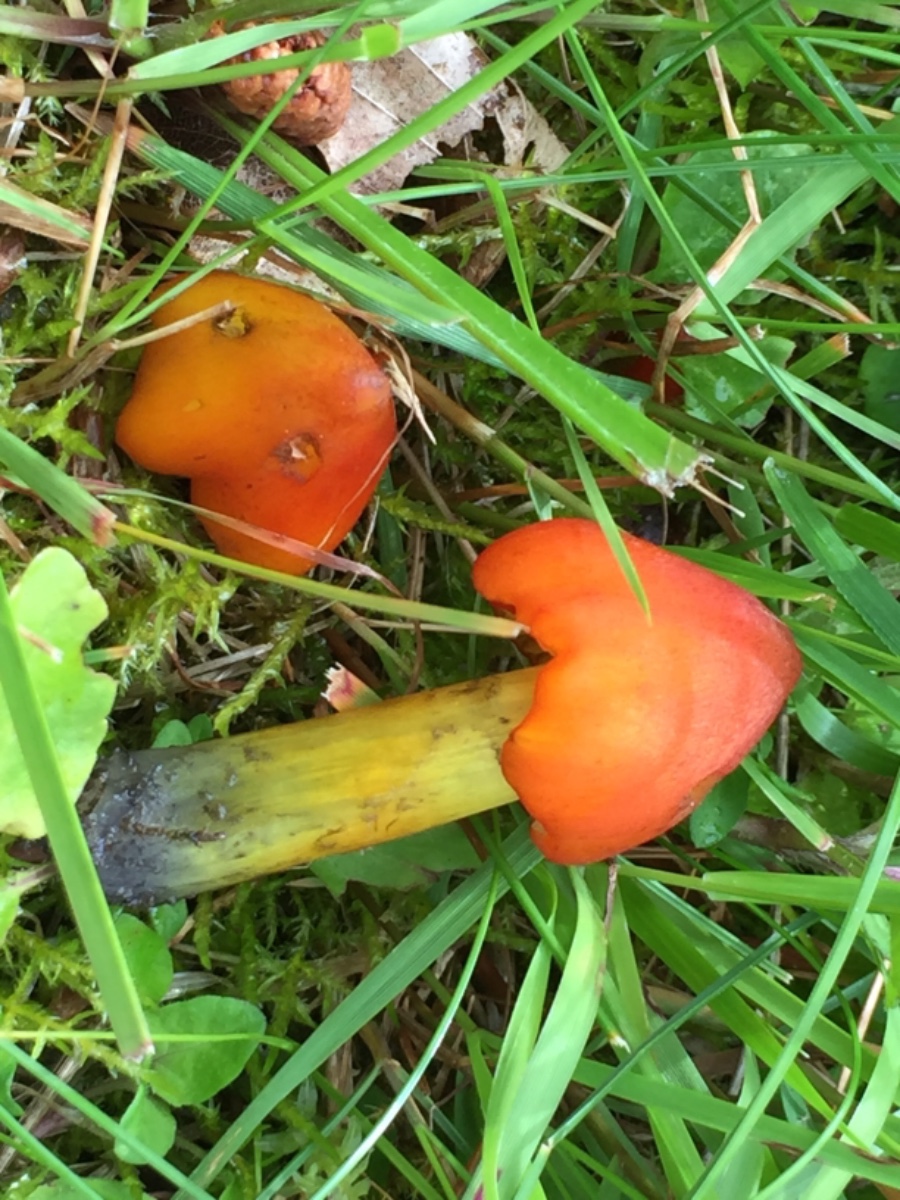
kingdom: Fungi
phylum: Basidiomycota
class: Agaricomycetes
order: Agaricales
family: Hygrophoraceae
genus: Hygrocybe
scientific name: Hygrocybe conica
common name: kegle-vokshat
